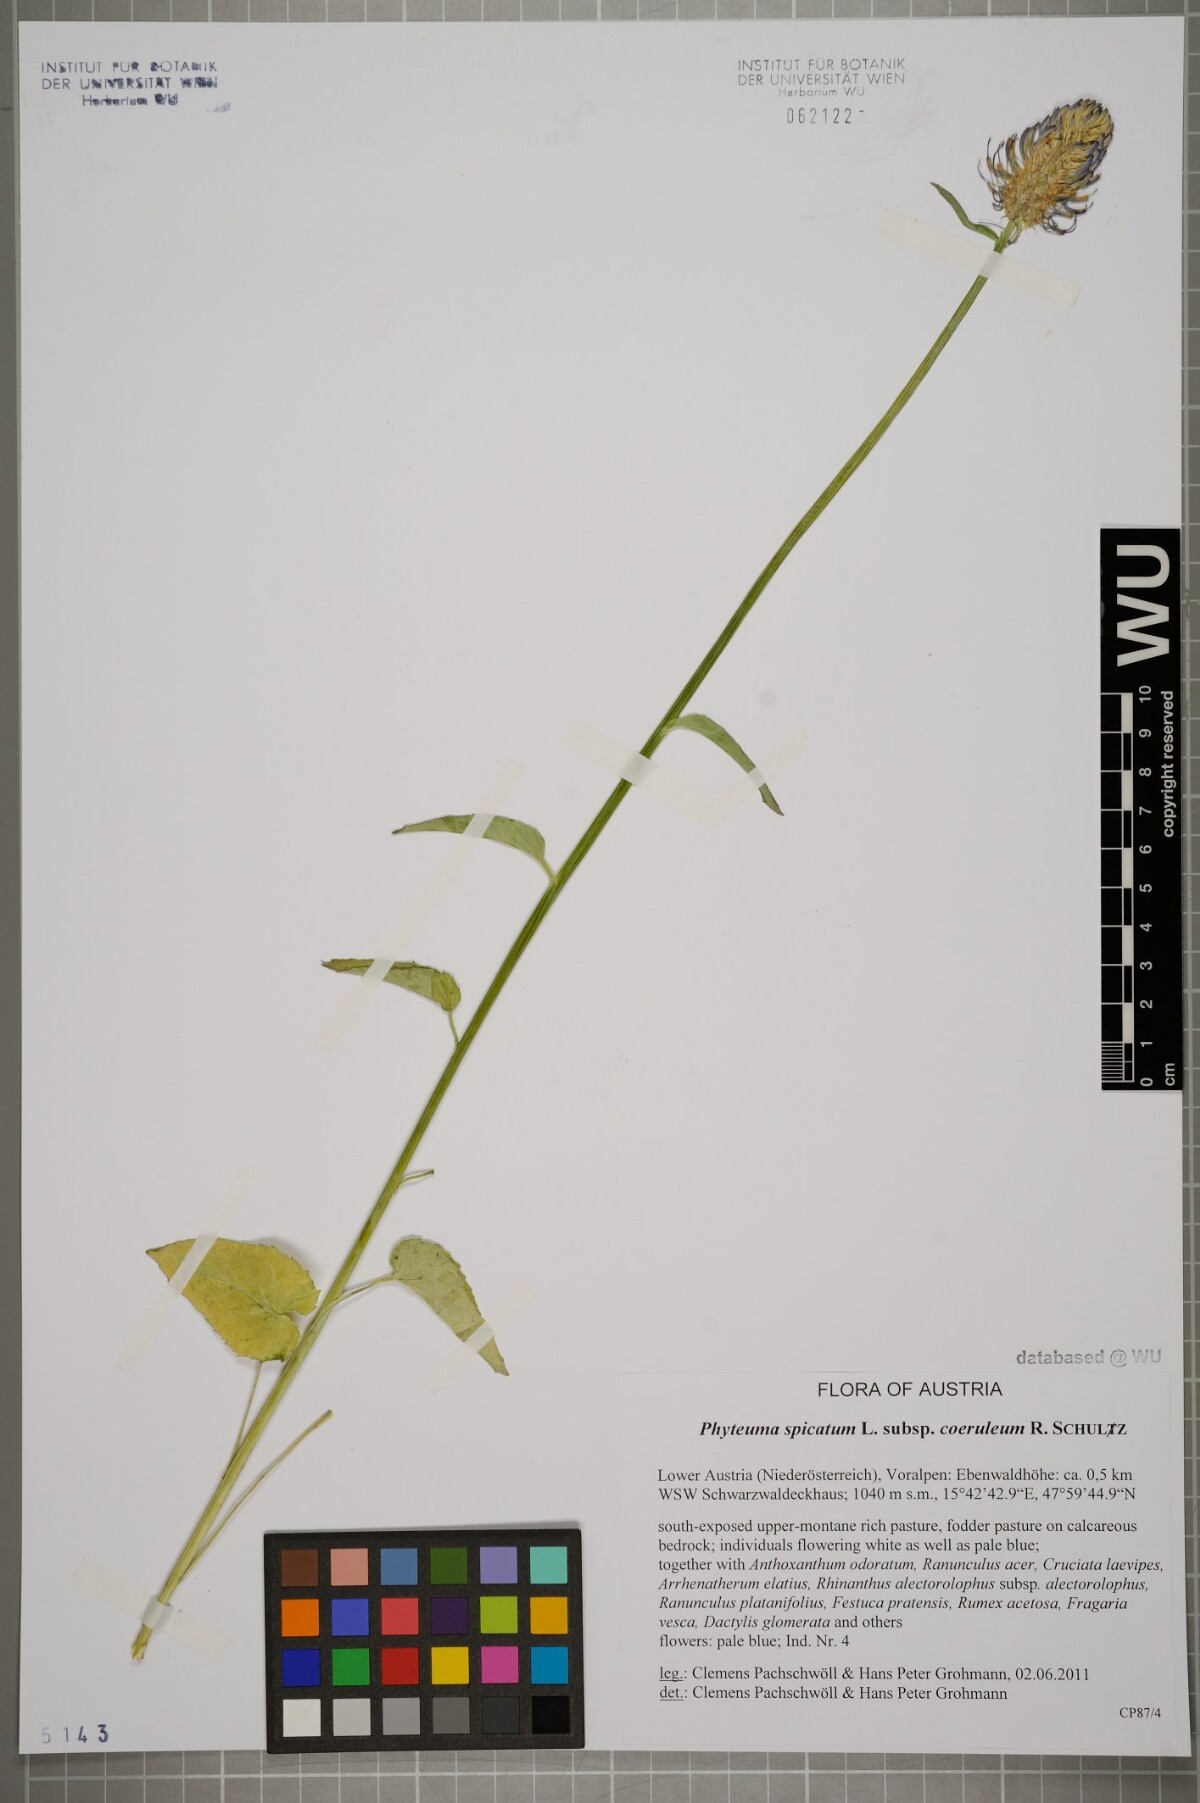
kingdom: Plantae
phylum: Tracheophyta
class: Magnoliopsida
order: Asterales
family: Campanulaceae
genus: Phyteuma
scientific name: Phyteuma spicatum
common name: Spiked rampion
